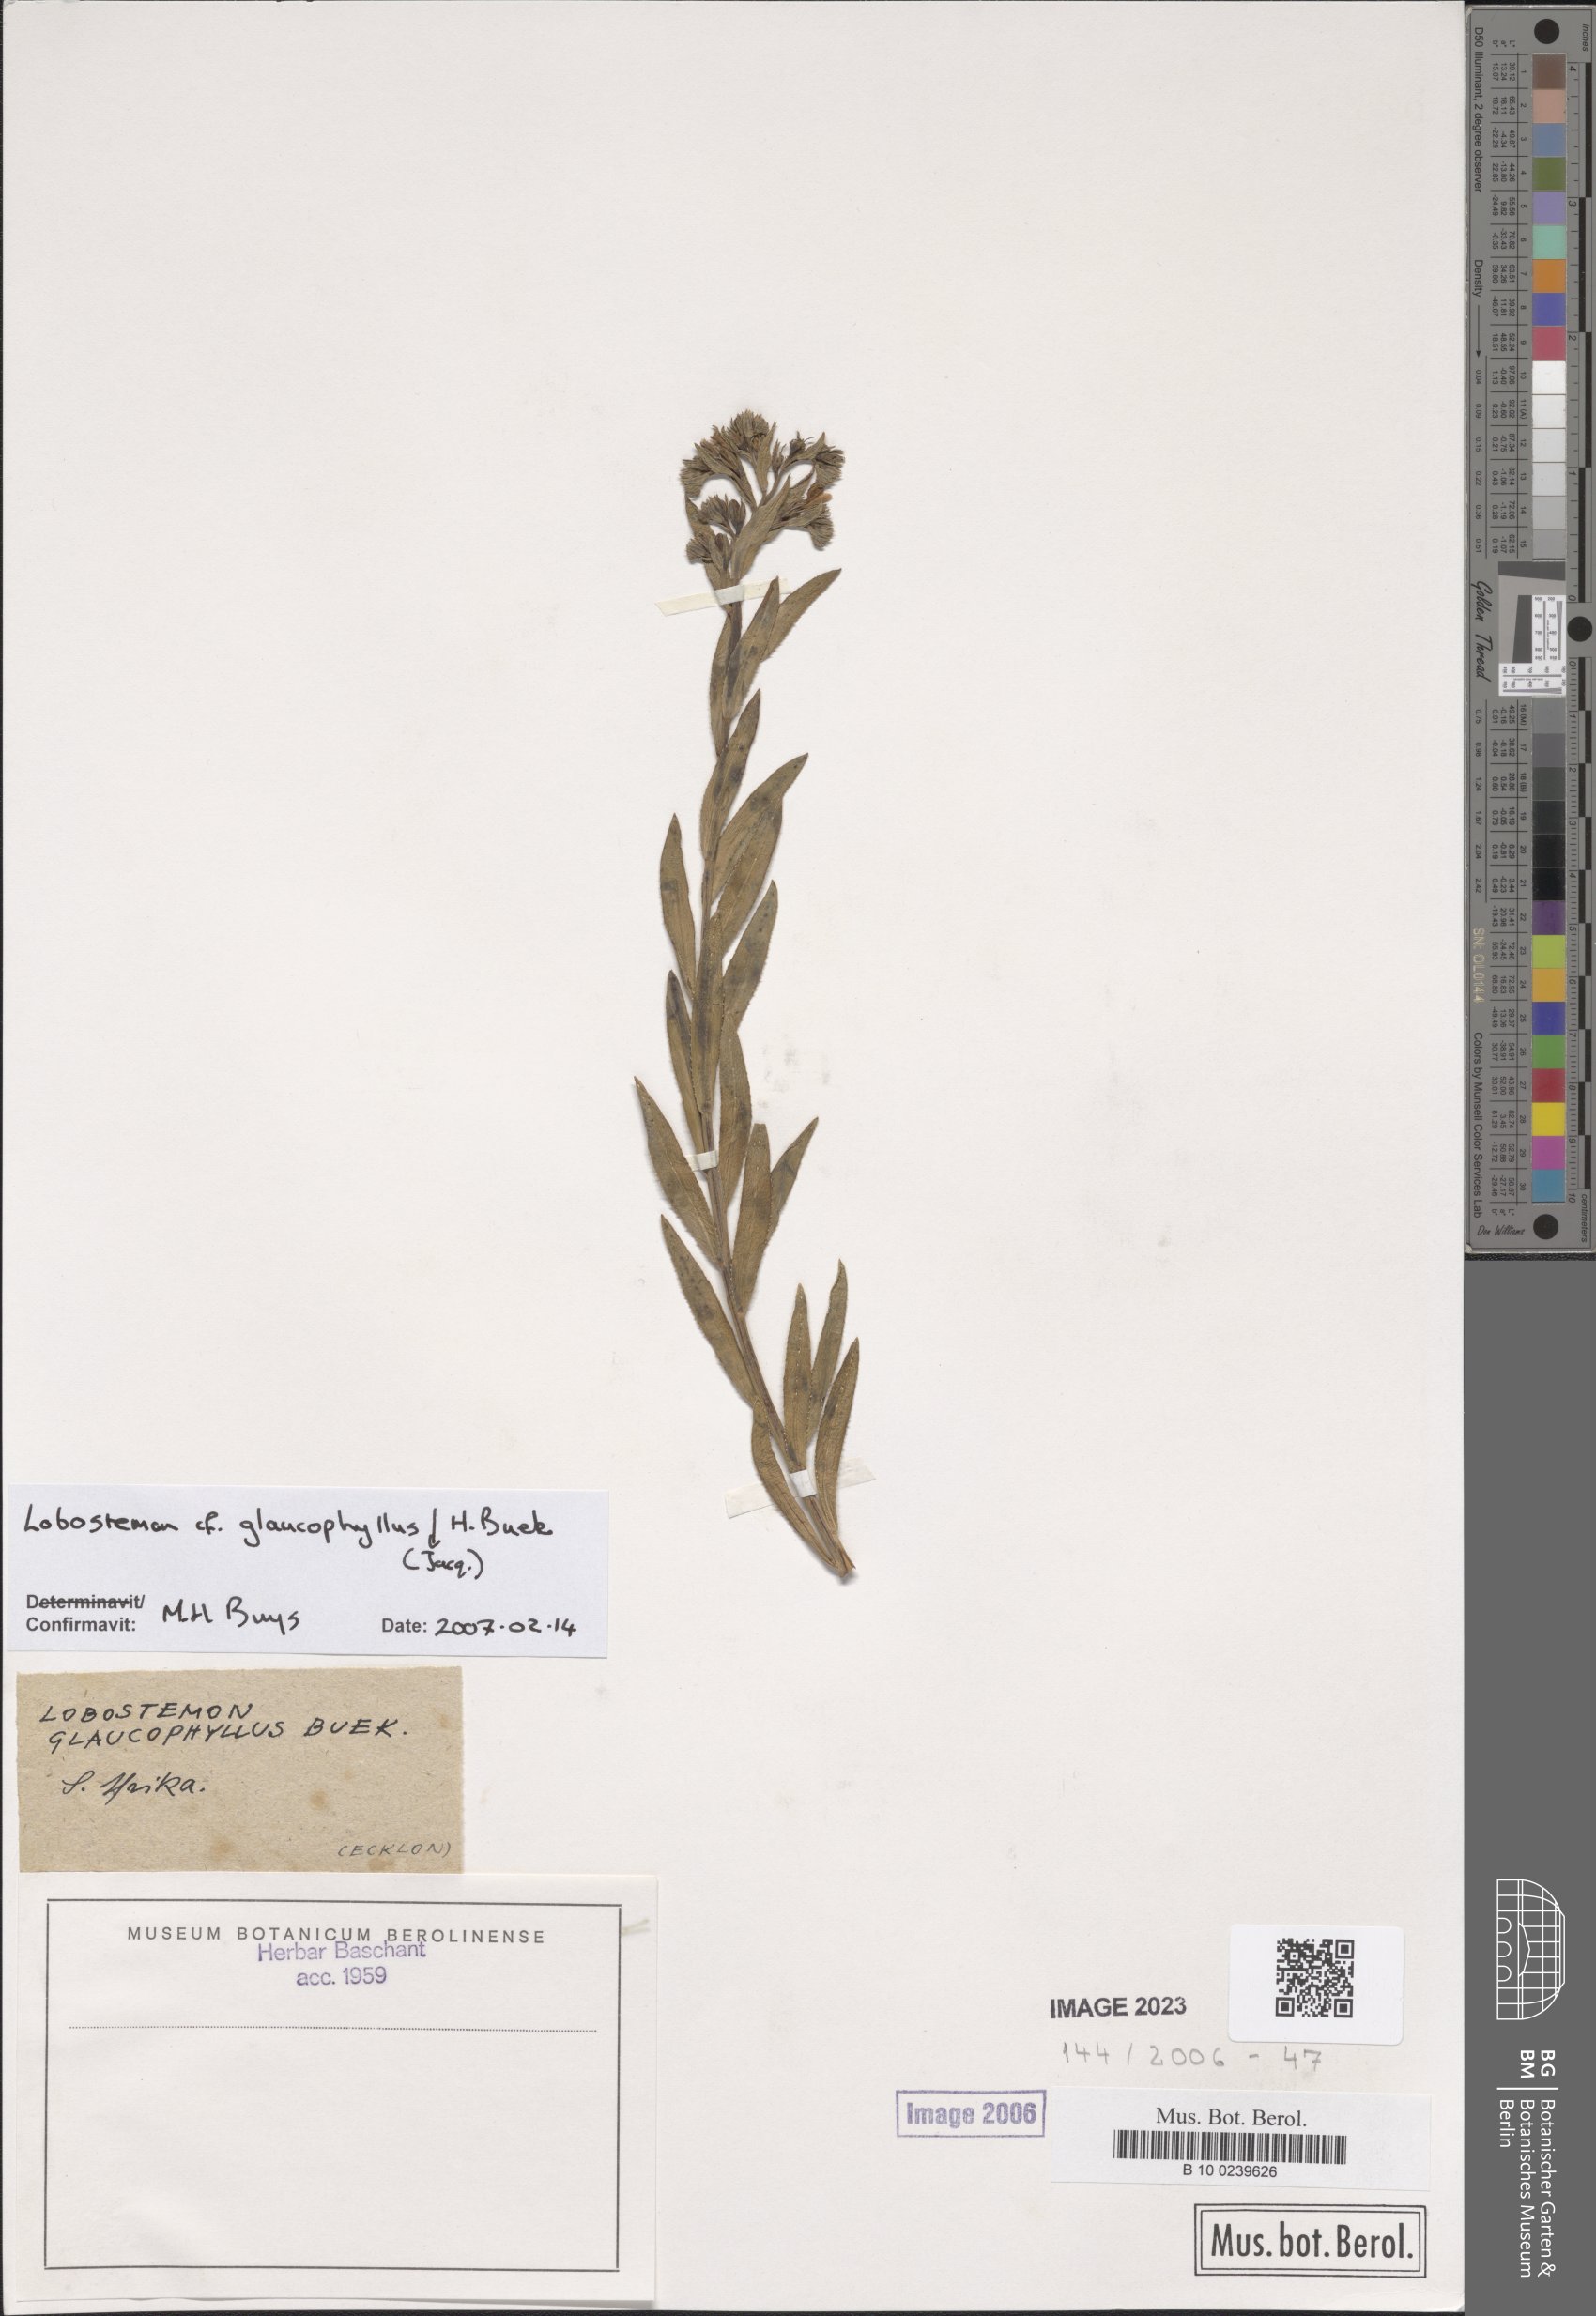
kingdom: Plantae
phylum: Tracheophyta
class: Magnoliopsida
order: Boraginales
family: Boraginaceae
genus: Lobostemon
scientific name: Lobostemon glaucophyllus
